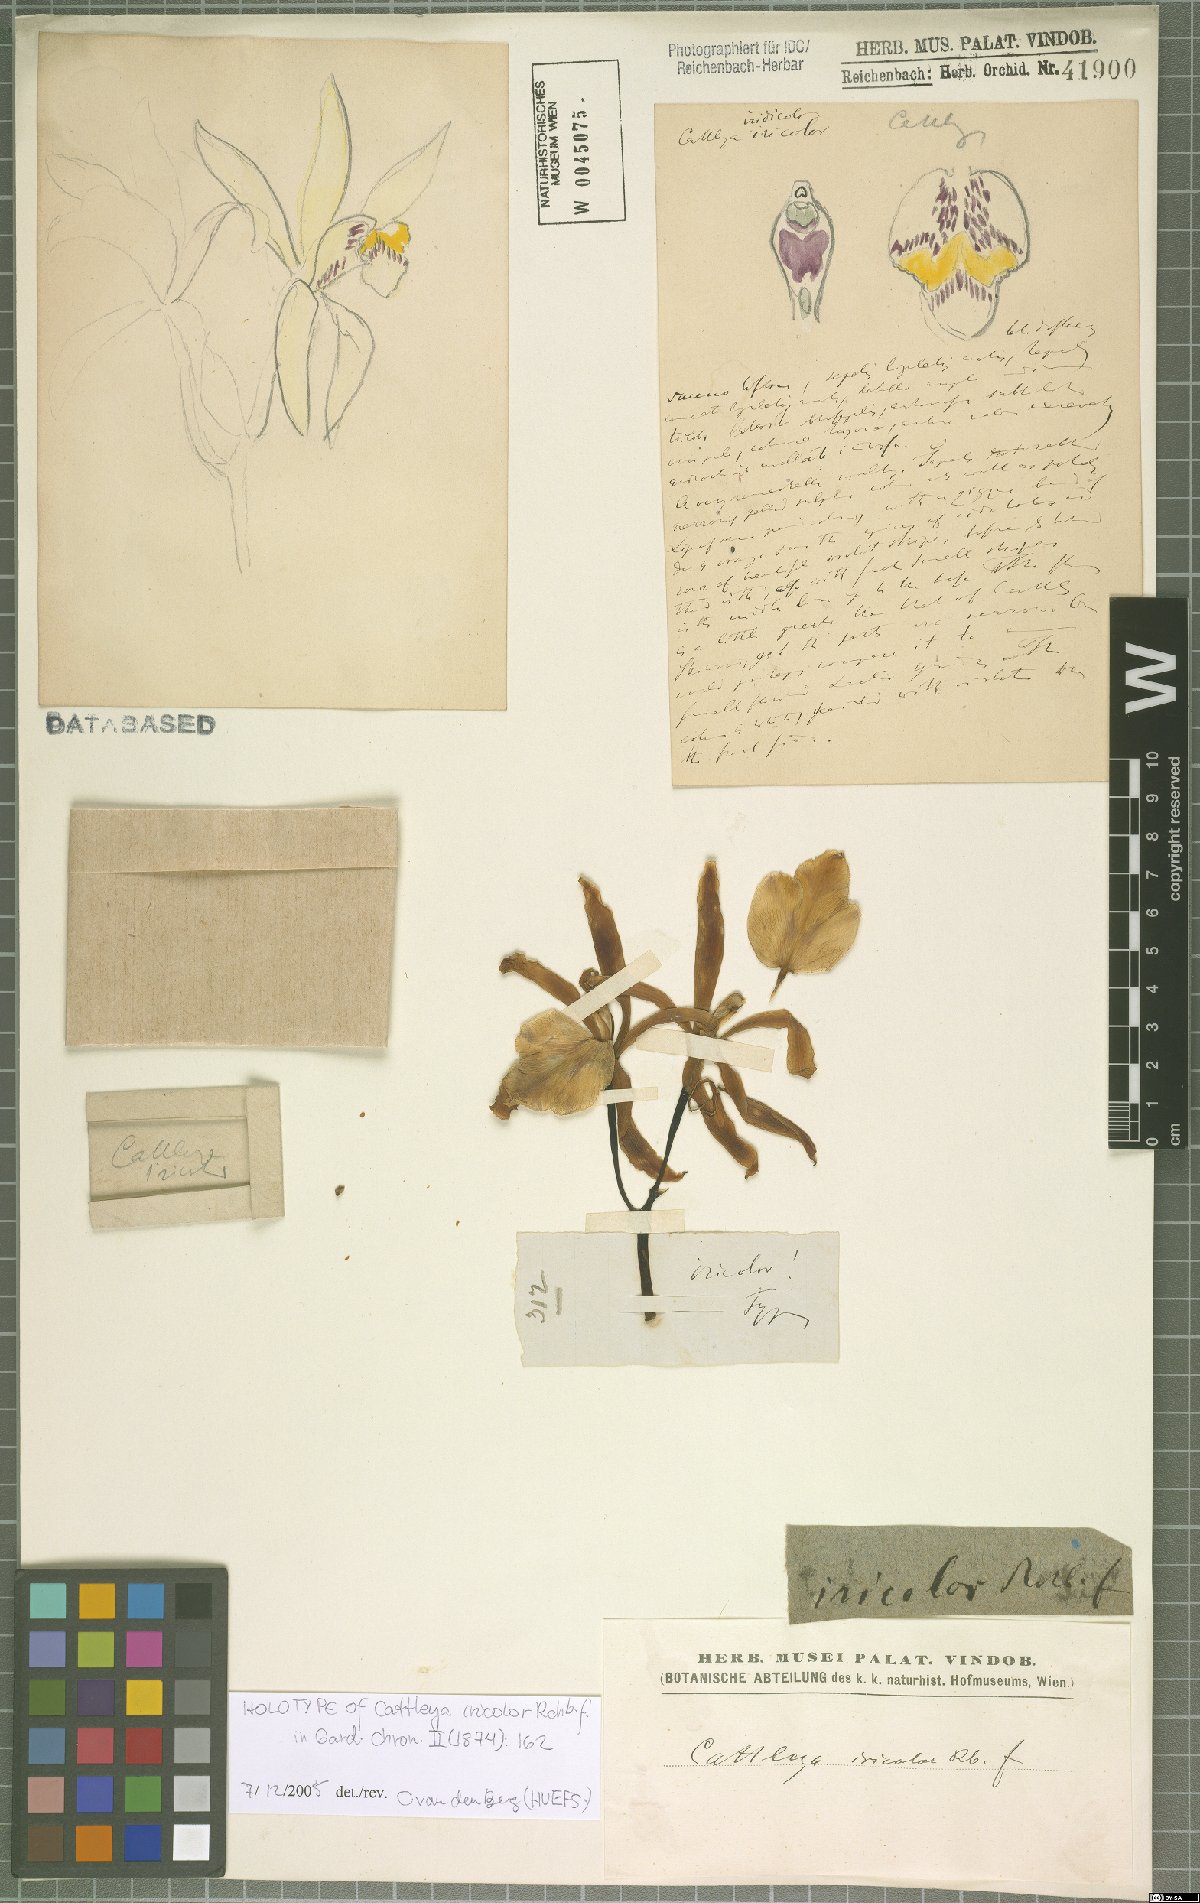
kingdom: Plantae
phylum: Tracheophyta
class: Liliopsida
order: Asparagales
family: Orchidaceae
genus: Cattleya
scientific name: Cattleya iricolor
